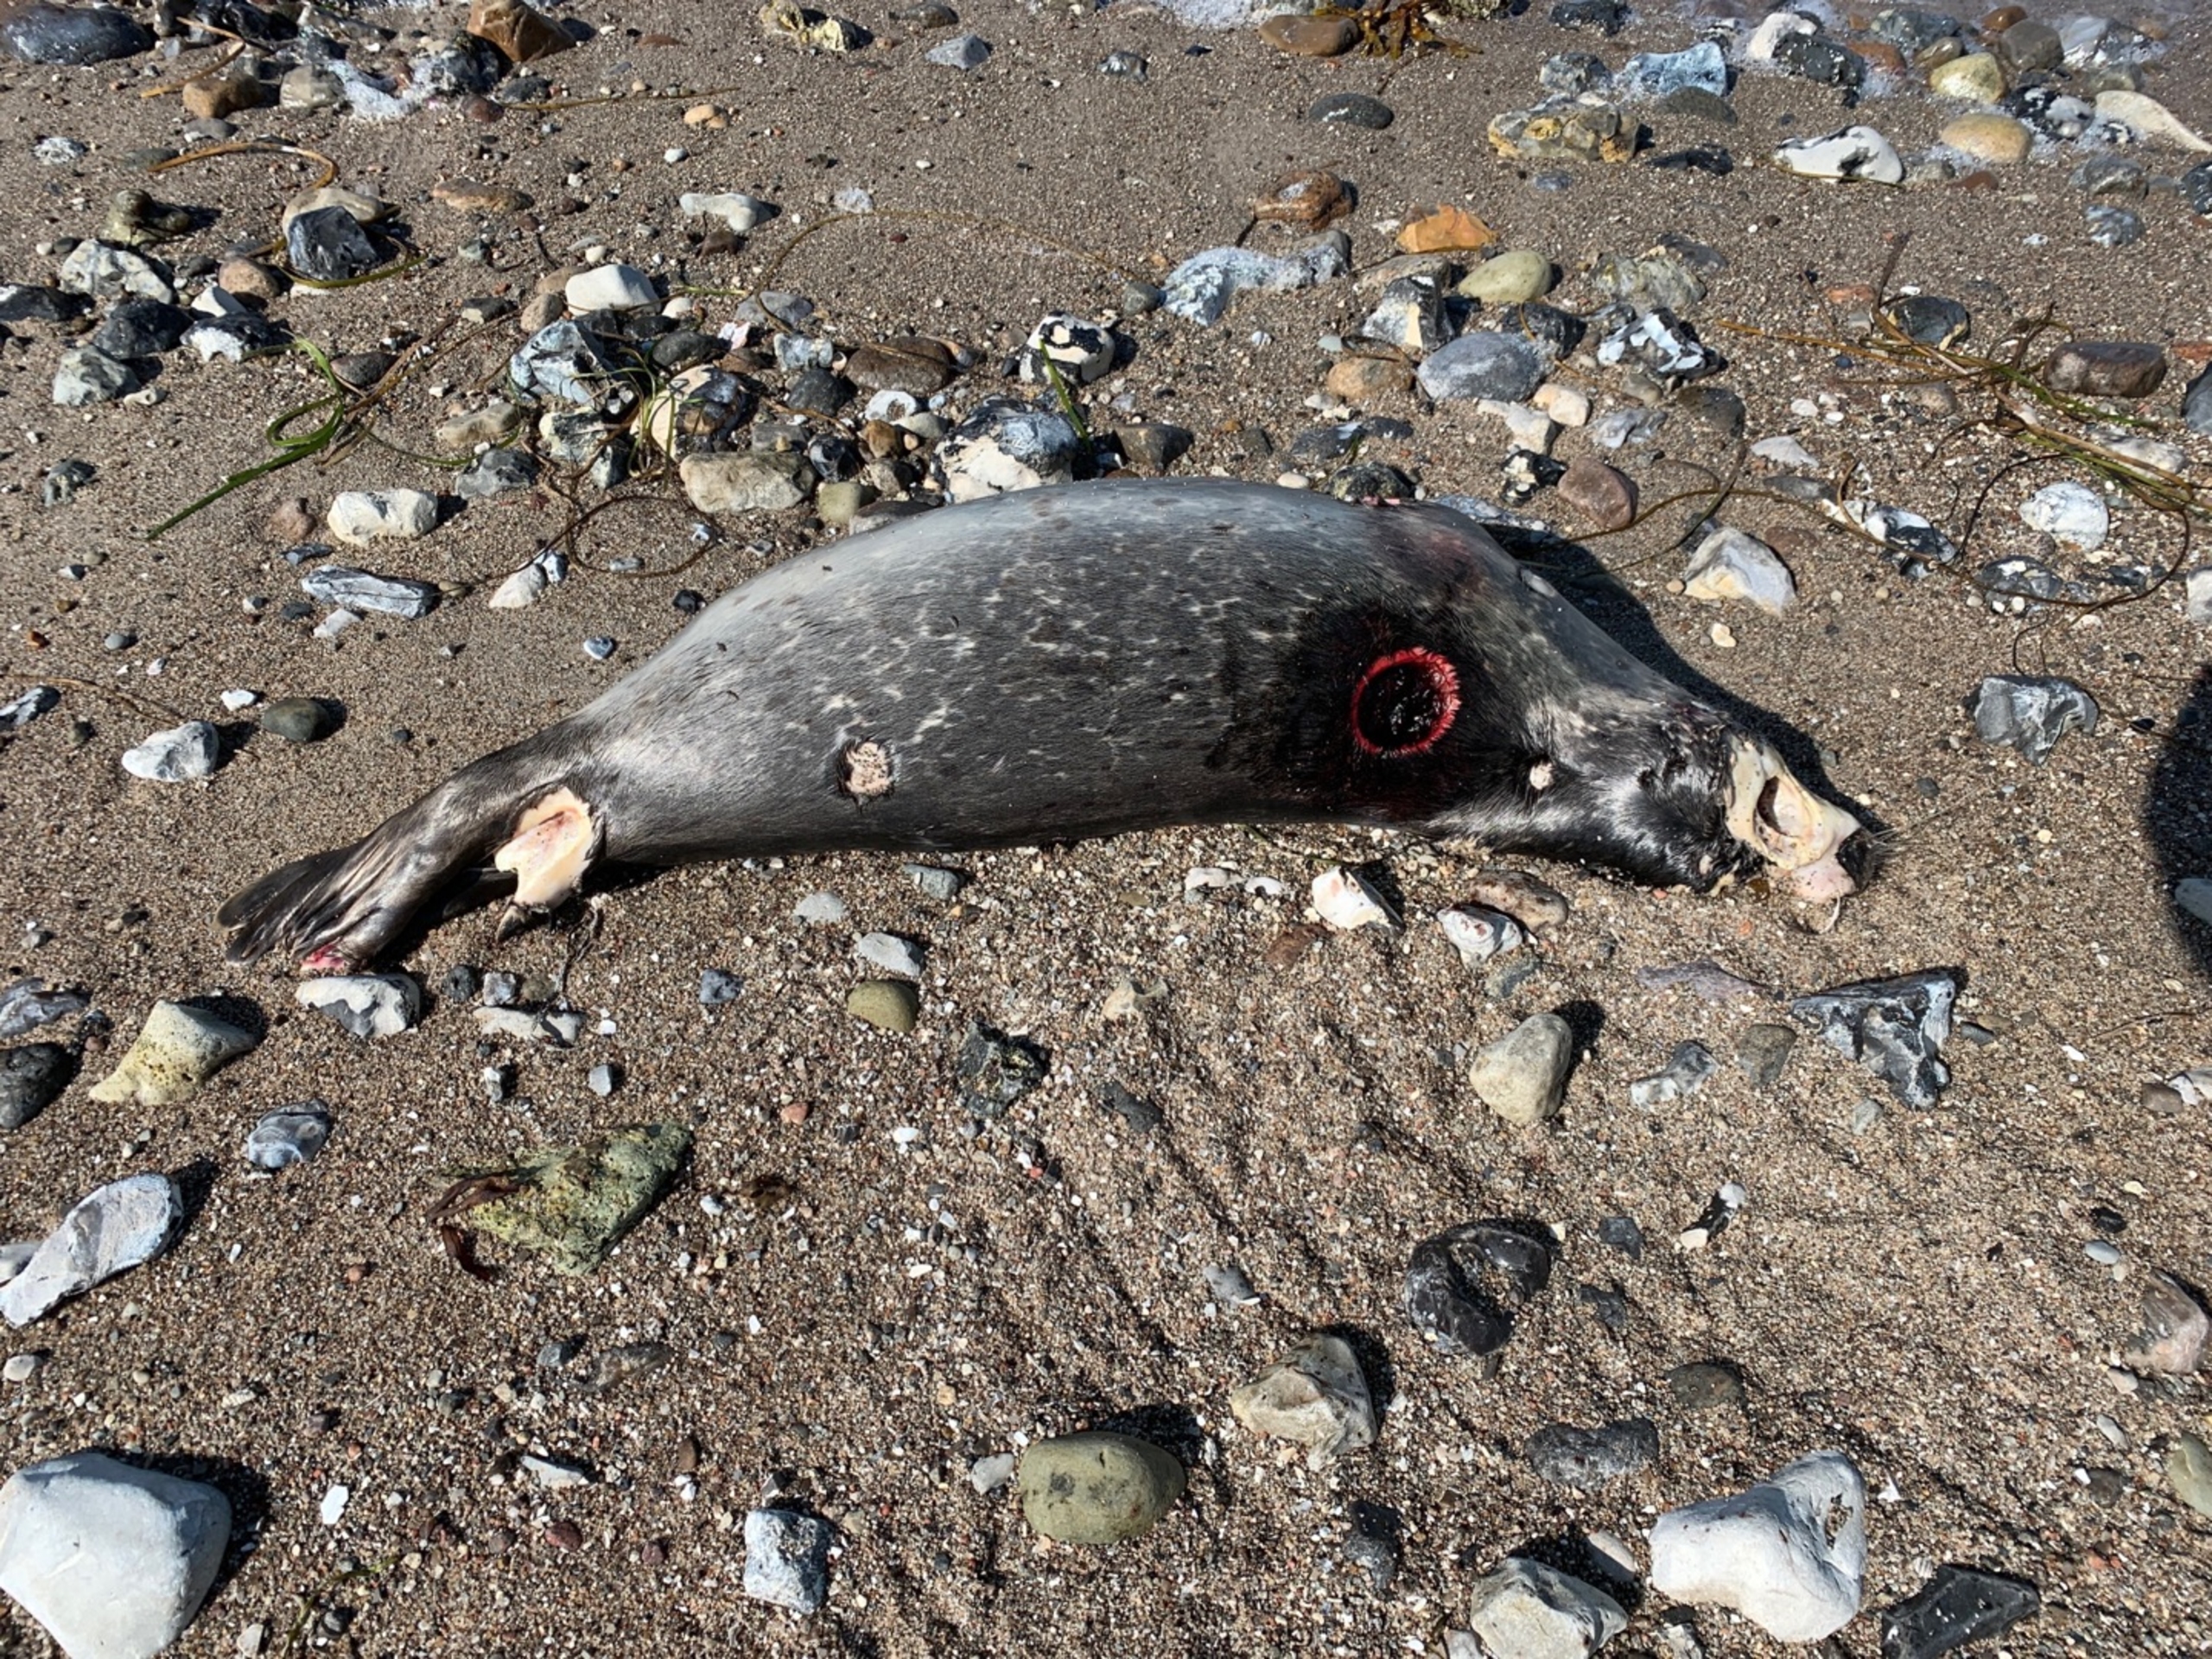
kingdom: Animalia
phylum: Chordata
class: Mammalia
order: Carnivora
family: Phocidae
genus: Phoca
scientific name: Phoca vitulina
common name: Spættet sæl
